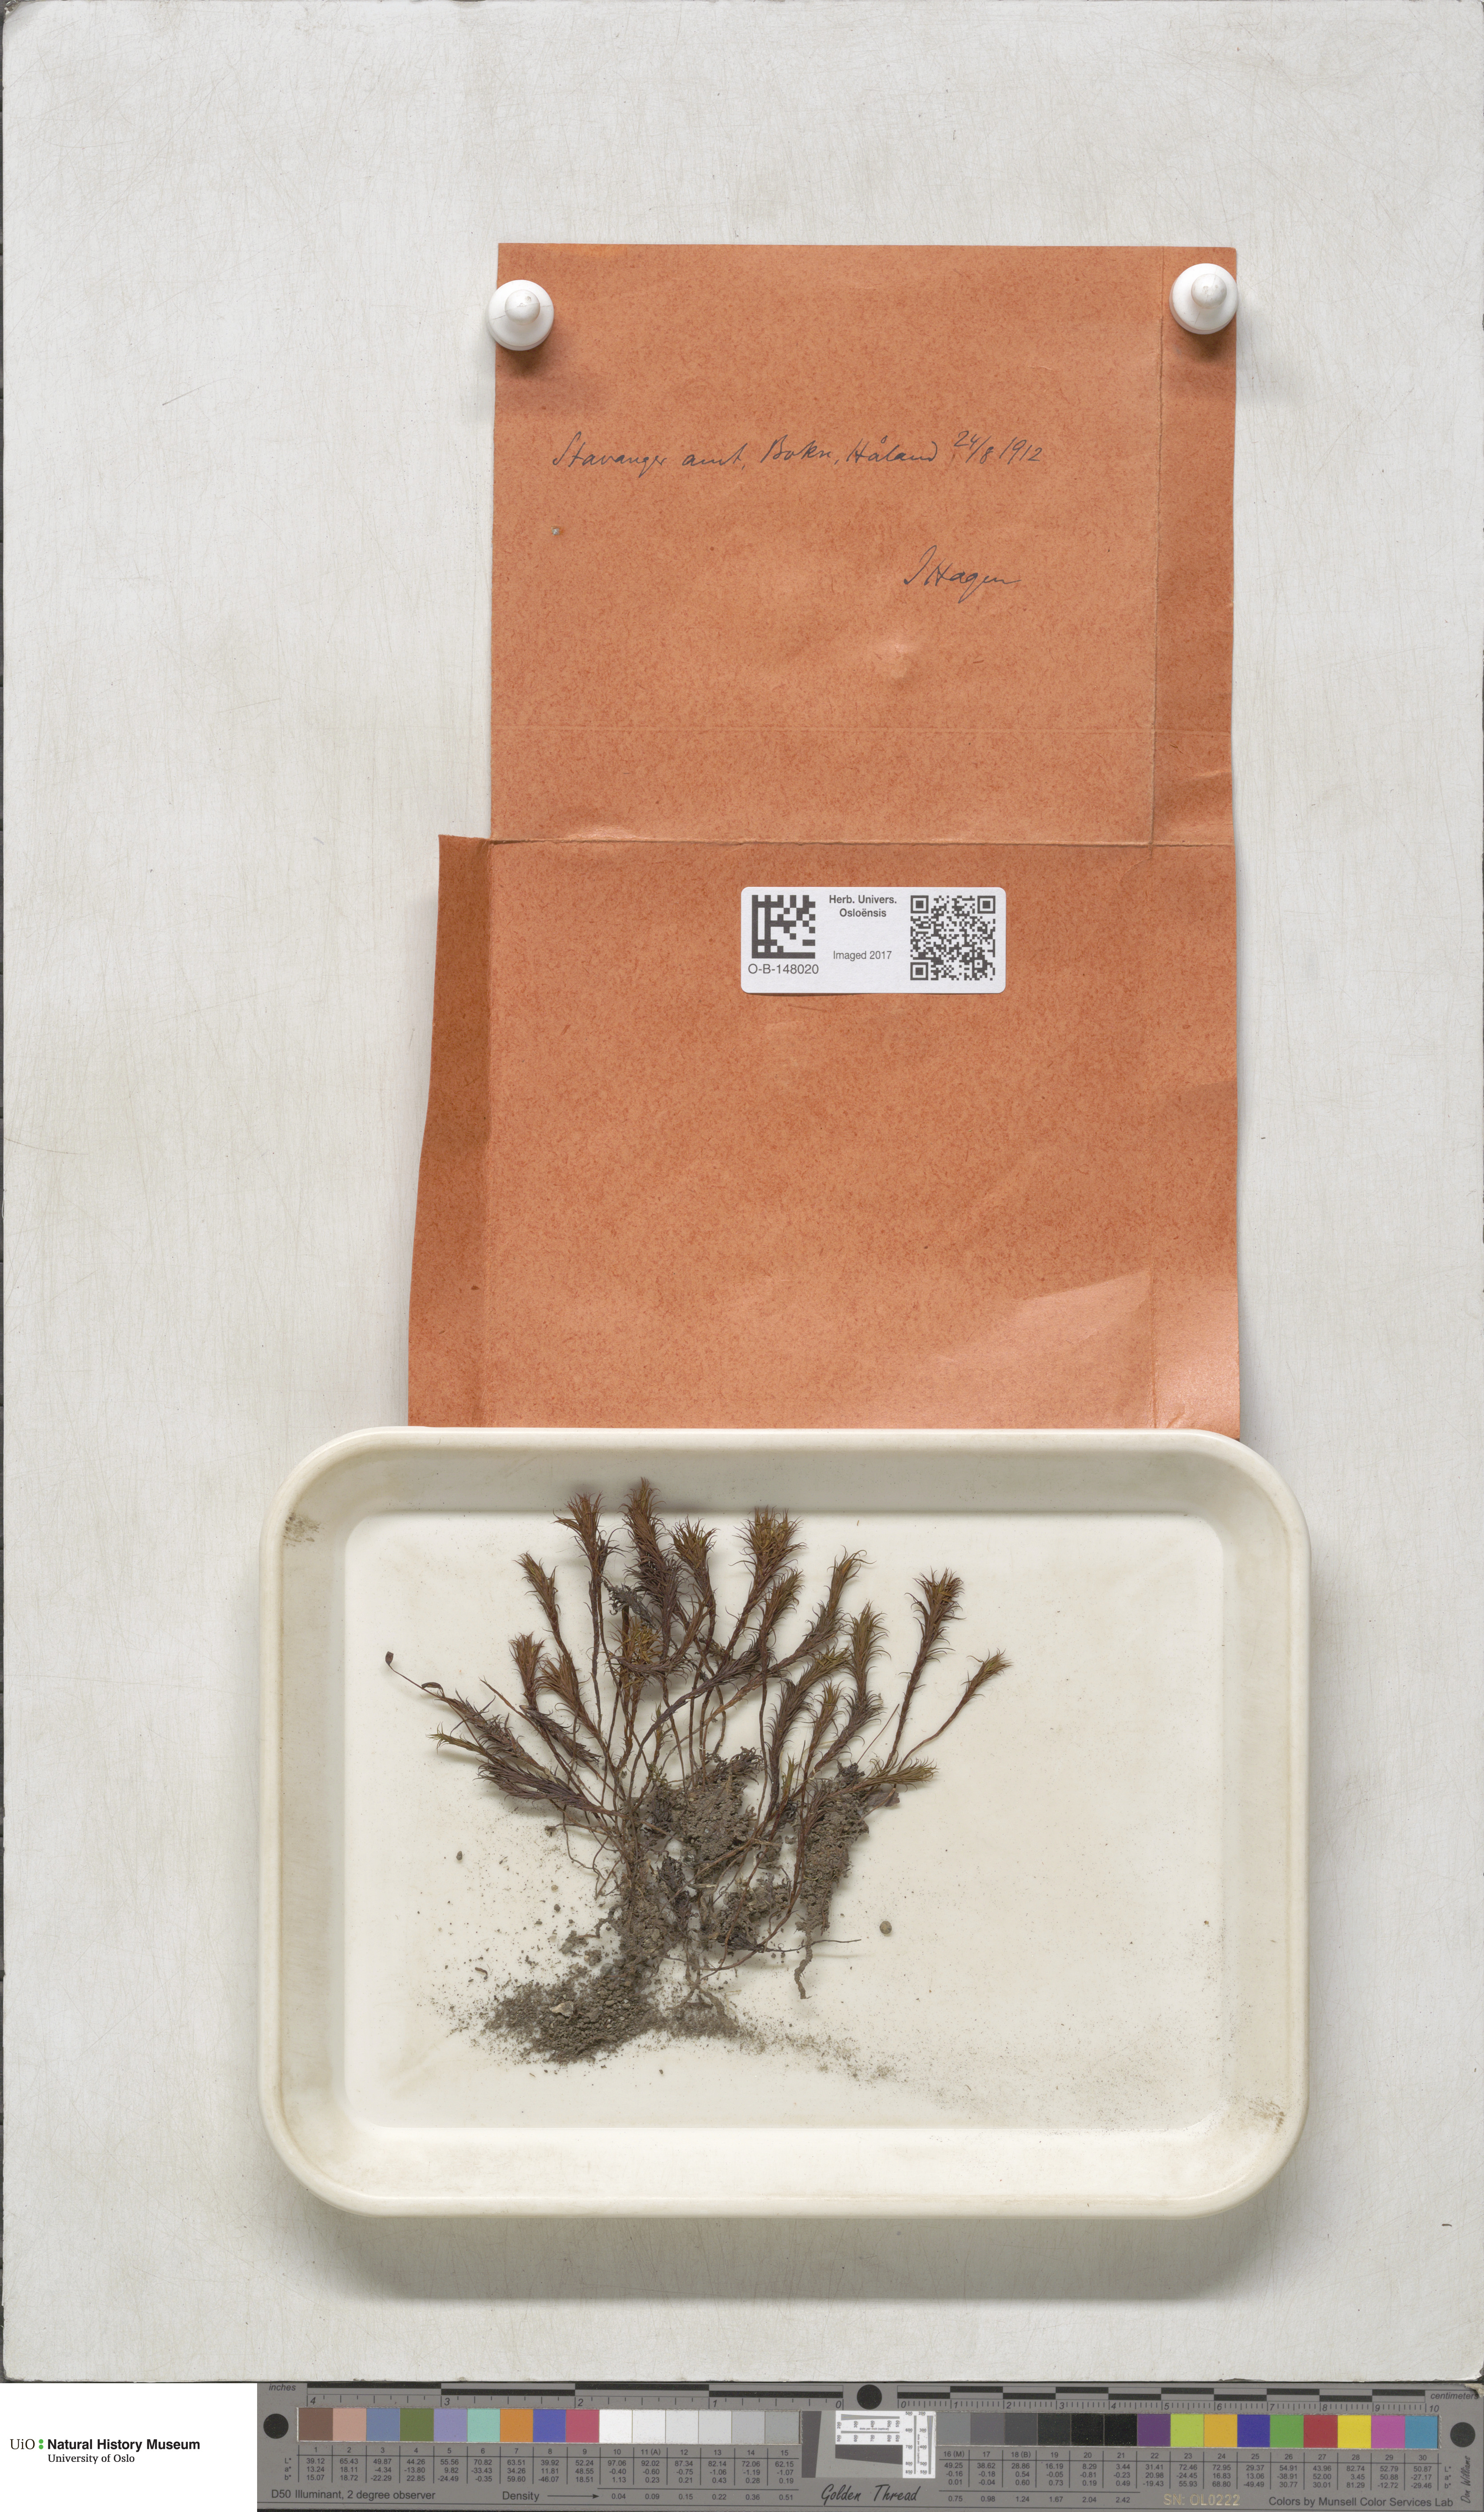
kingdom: Plantae
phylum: Bryophyta
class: Polytrichopsida
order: Polytrichales
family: Polytrichaceae
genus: Polytrichastrum
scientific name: Polytrichastrum alpinum
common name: Alpine haircap
